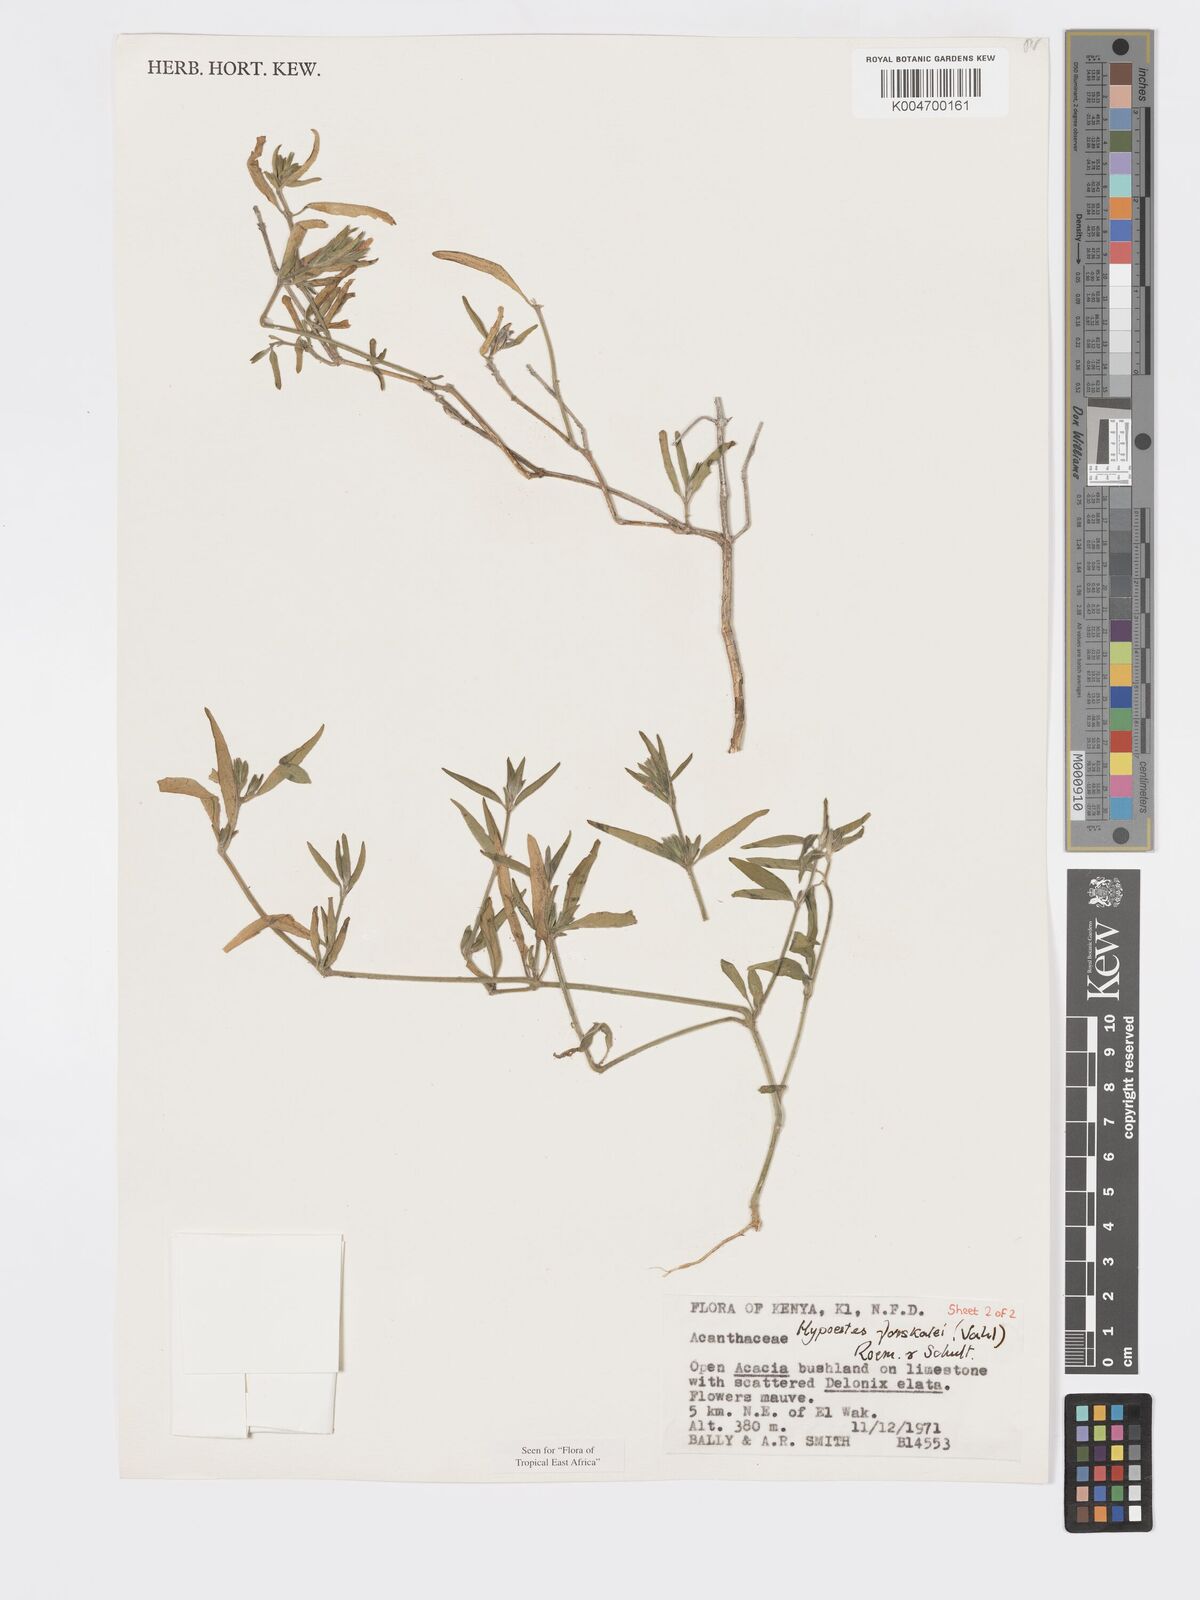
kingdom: Plantae
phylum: Tracheophyta
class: Magnoliopsida
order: Lamiales
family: Acanthaceae
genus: Hypoestes
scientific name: Hypoestes forskaolii
